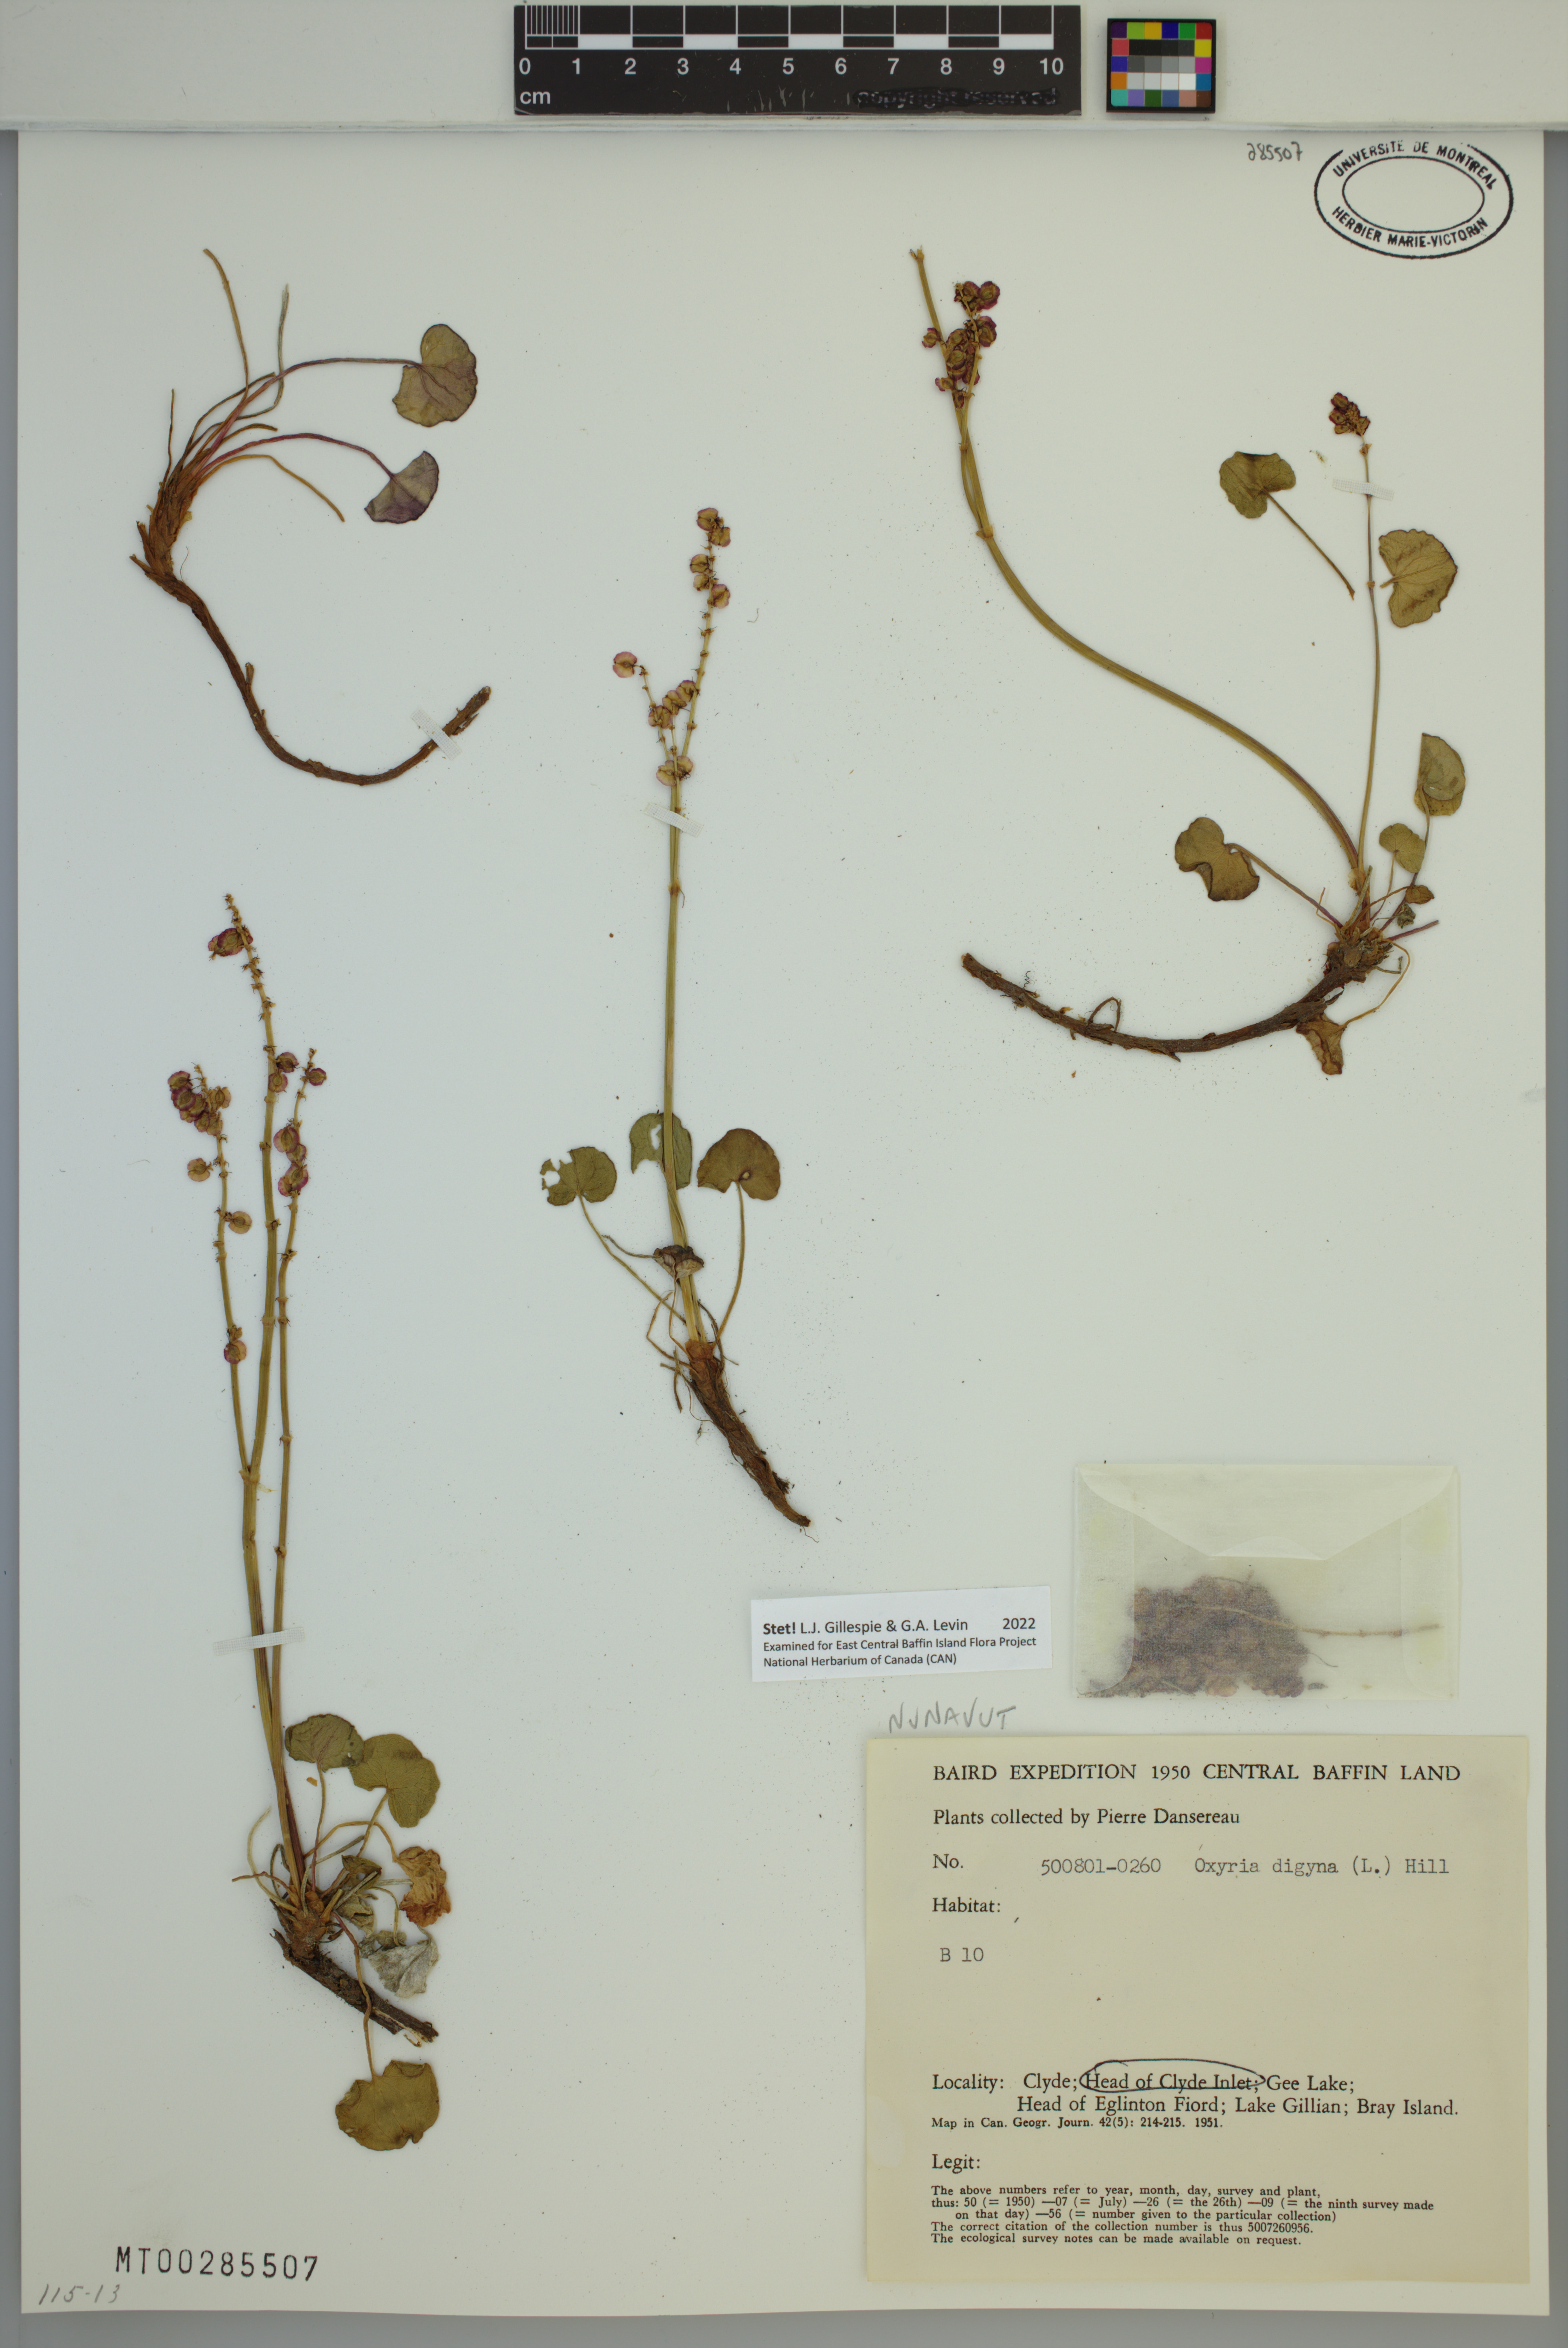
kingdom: Plantae
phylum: Tracheophyta
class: Magnoliopsida
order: Caryophyllales
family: Polygonaceae
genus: Oxyria
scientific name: Oxyria digyna
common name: Alpine mountain-sorrel
